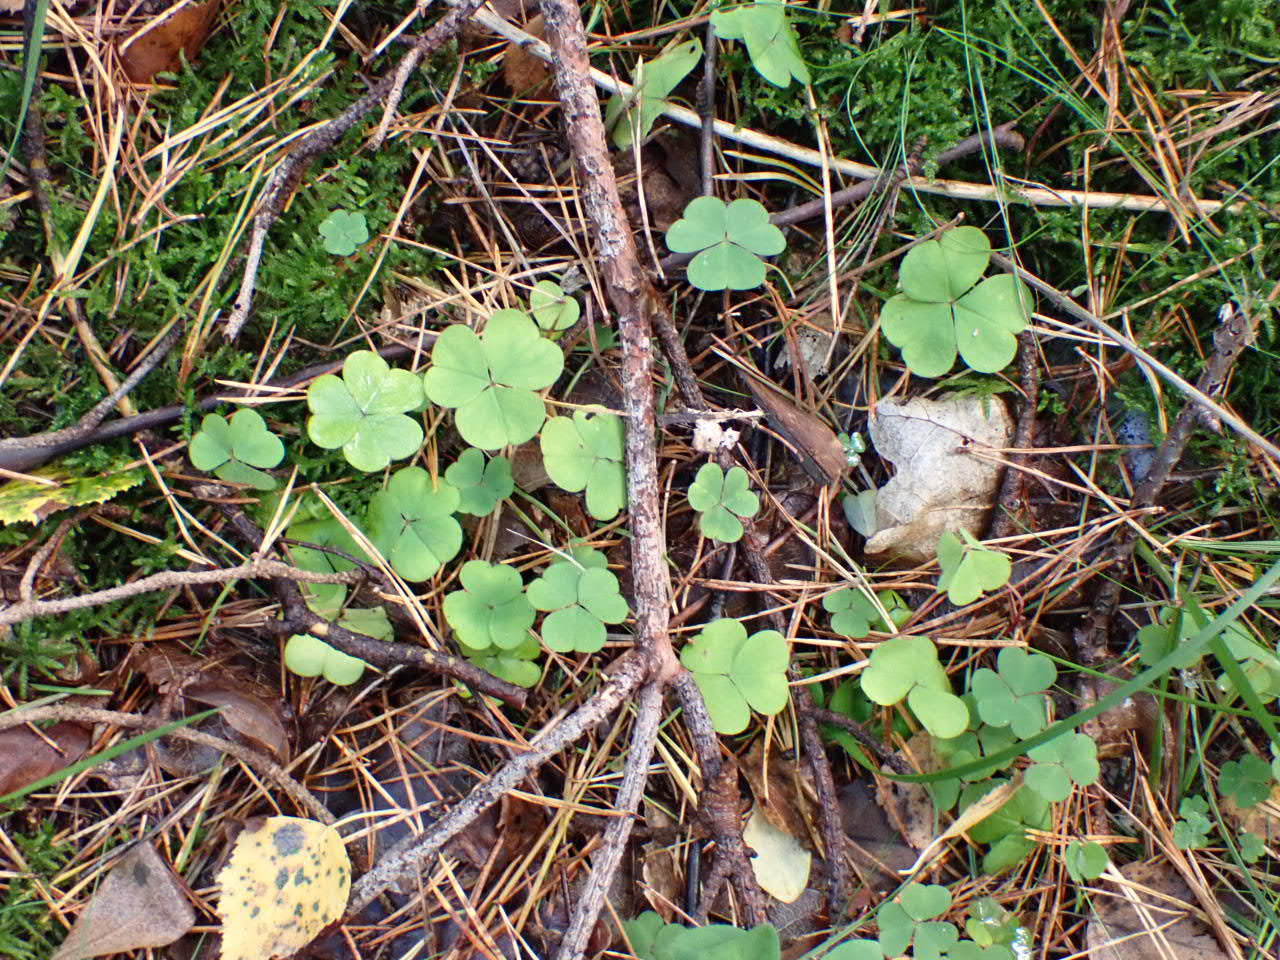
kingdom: Plantae
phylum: Tracheophyta
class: Magnoliopsida
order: Oxalidales
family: Oxalidaceae
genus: Oxalis
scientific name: Oxalis acetosella
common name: Skovsyre
